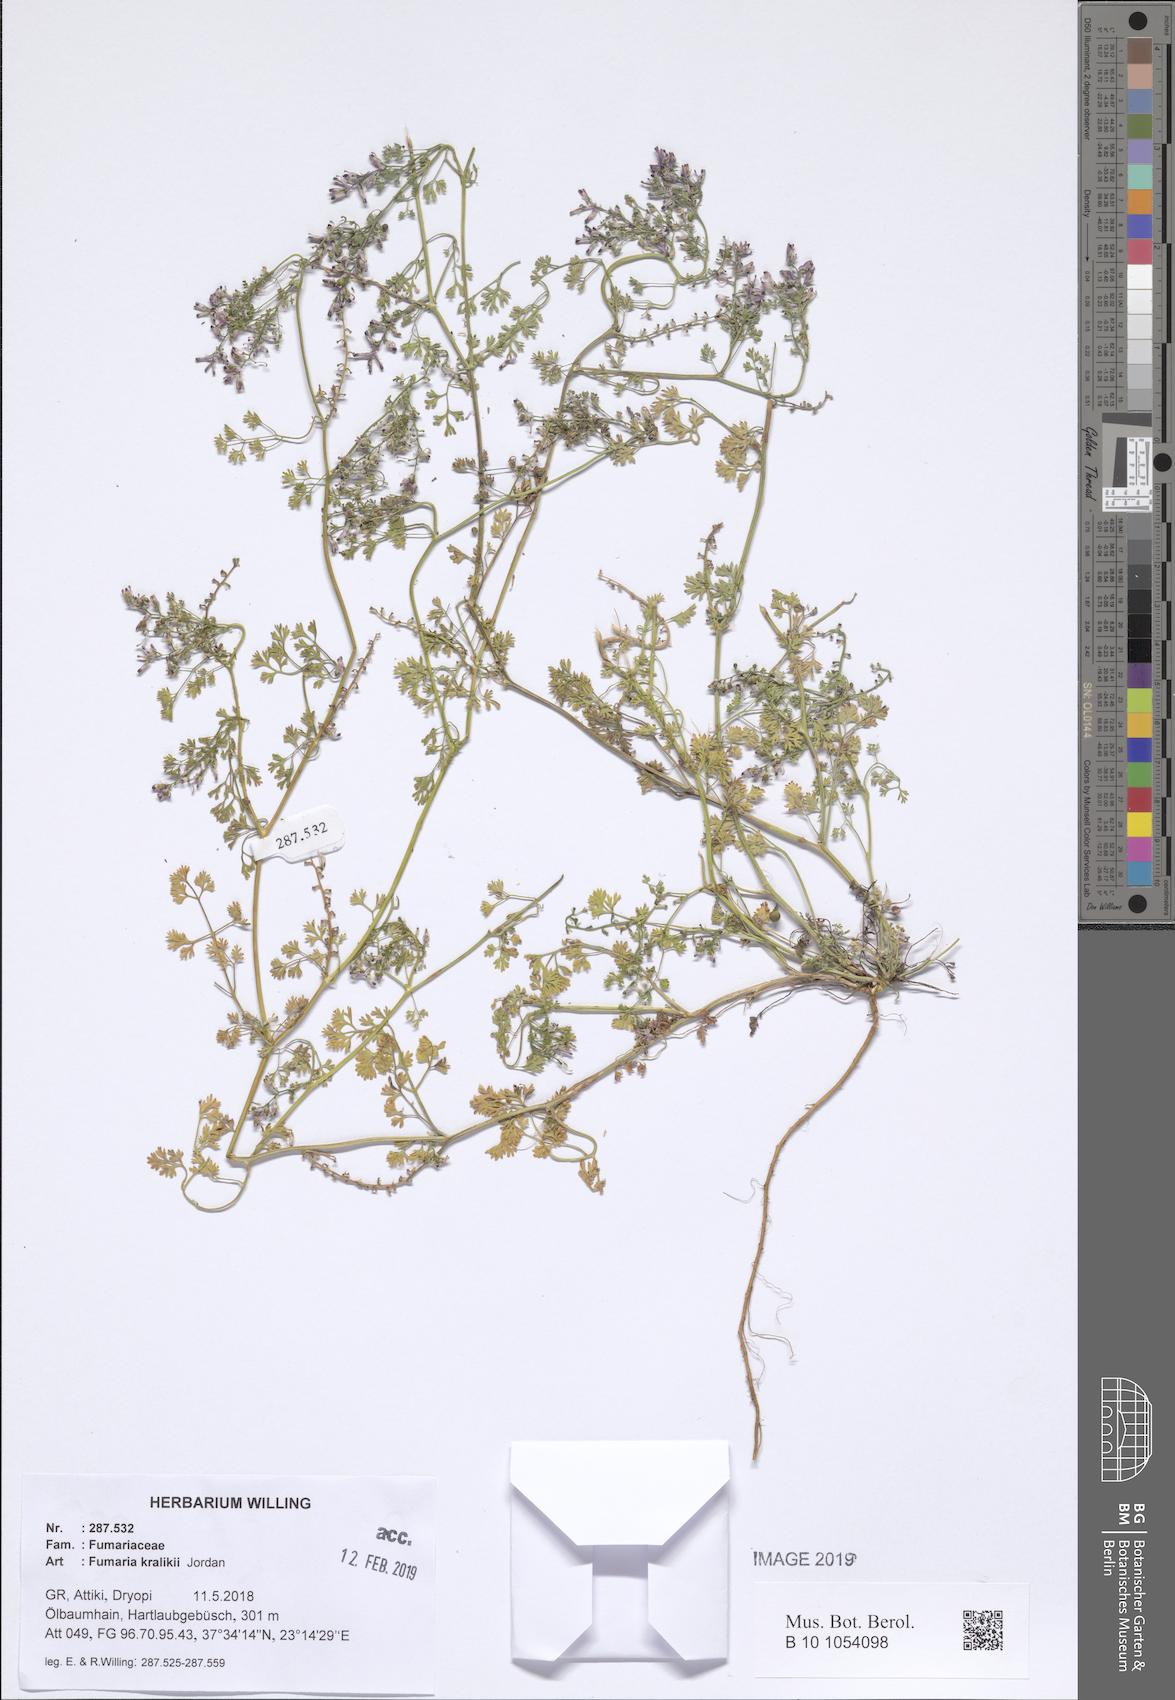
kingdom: Plantae
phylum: Tracheophyta
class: Magnoliopsida
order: Ranunculales
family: Papaveraceae
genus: Fumaria
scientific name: Fumaria kralikii
